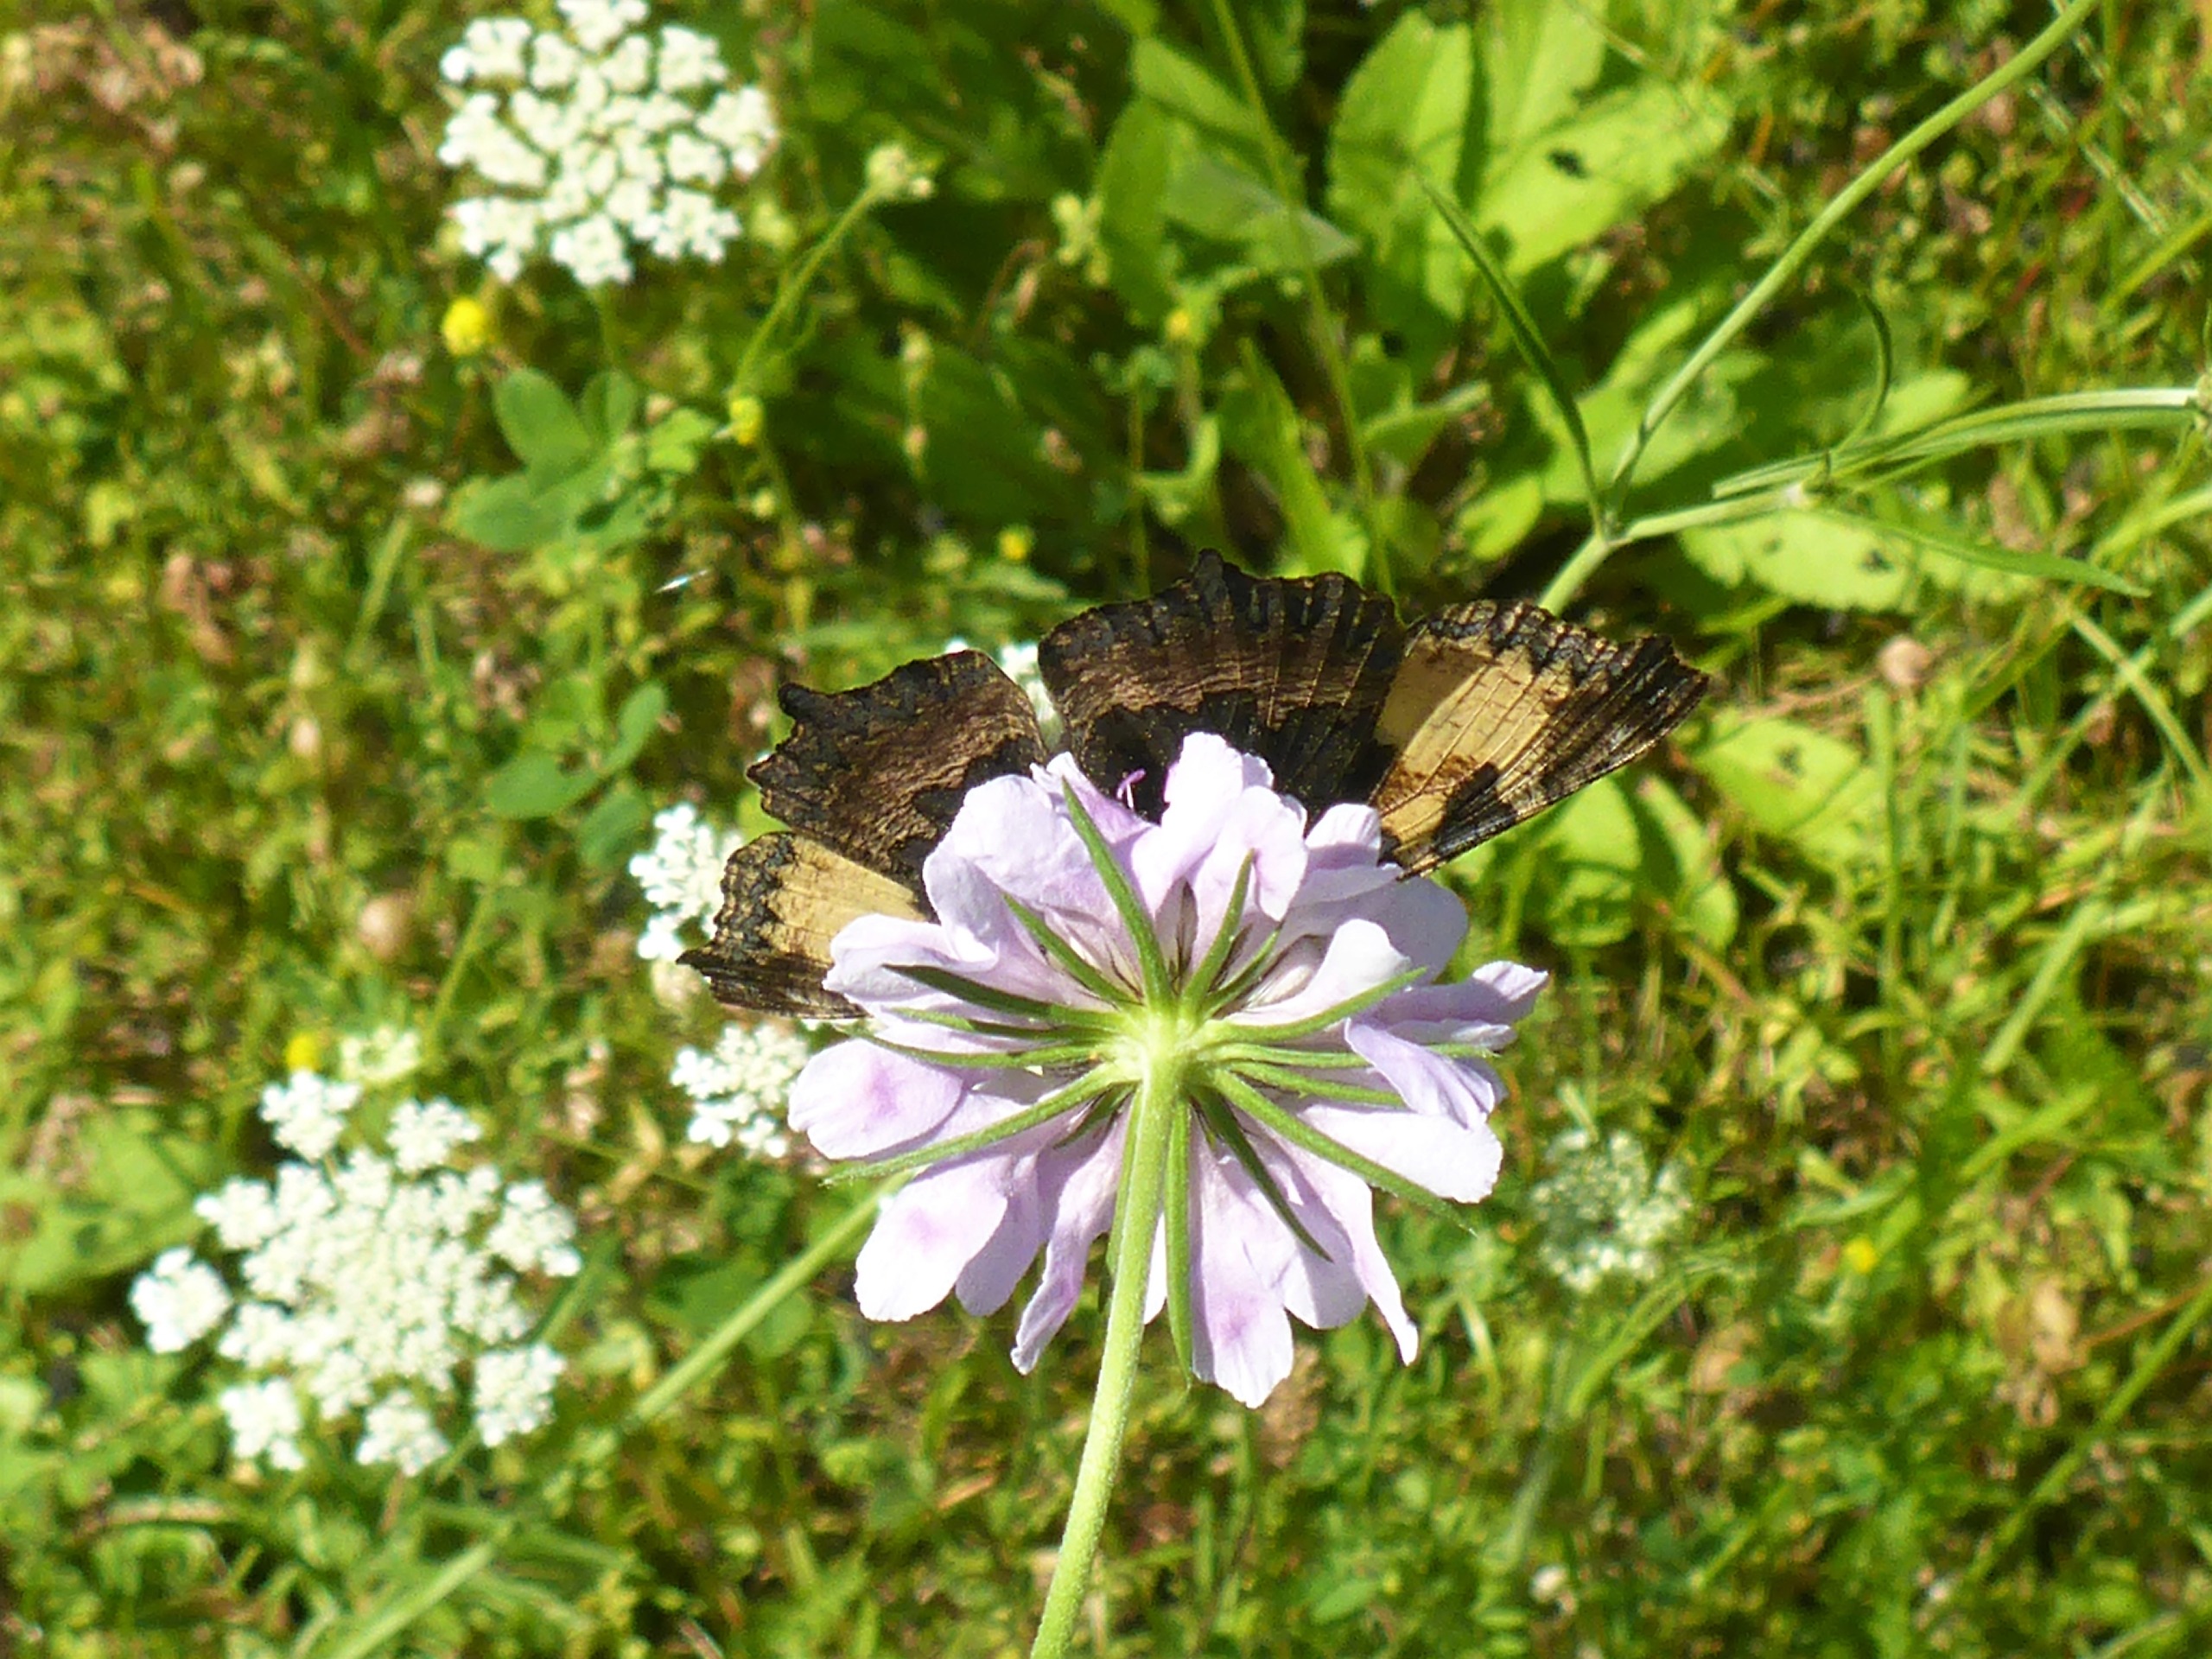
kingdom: Animalia
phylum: Arthropoda
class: Insecta
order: Lepidoptera
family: Nymphalidae
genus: Aglais
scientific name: Aglais urticae
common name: Nældens takvinge
